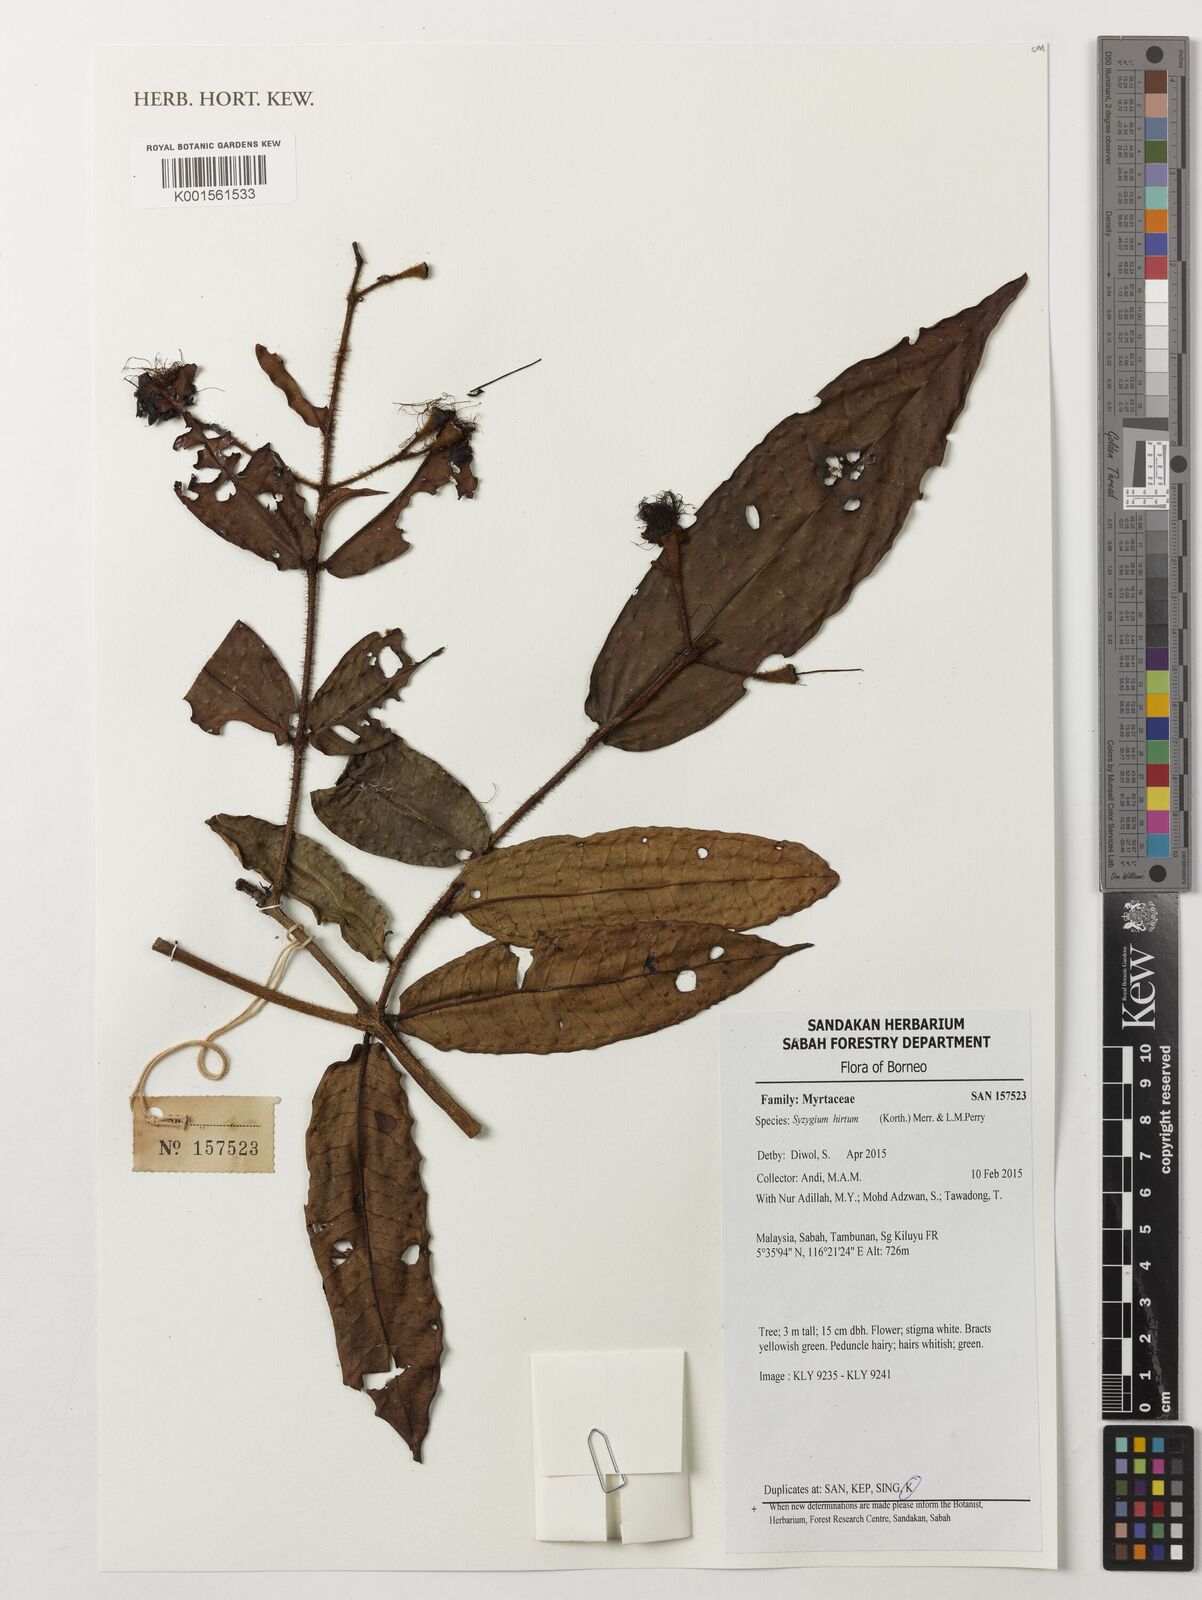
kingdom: Plantae
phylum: Tracheophyta
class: Magnoliopsida
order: Myrtales
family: Myrtaceae
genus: Syzygium
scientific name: Syzygium hirtum
